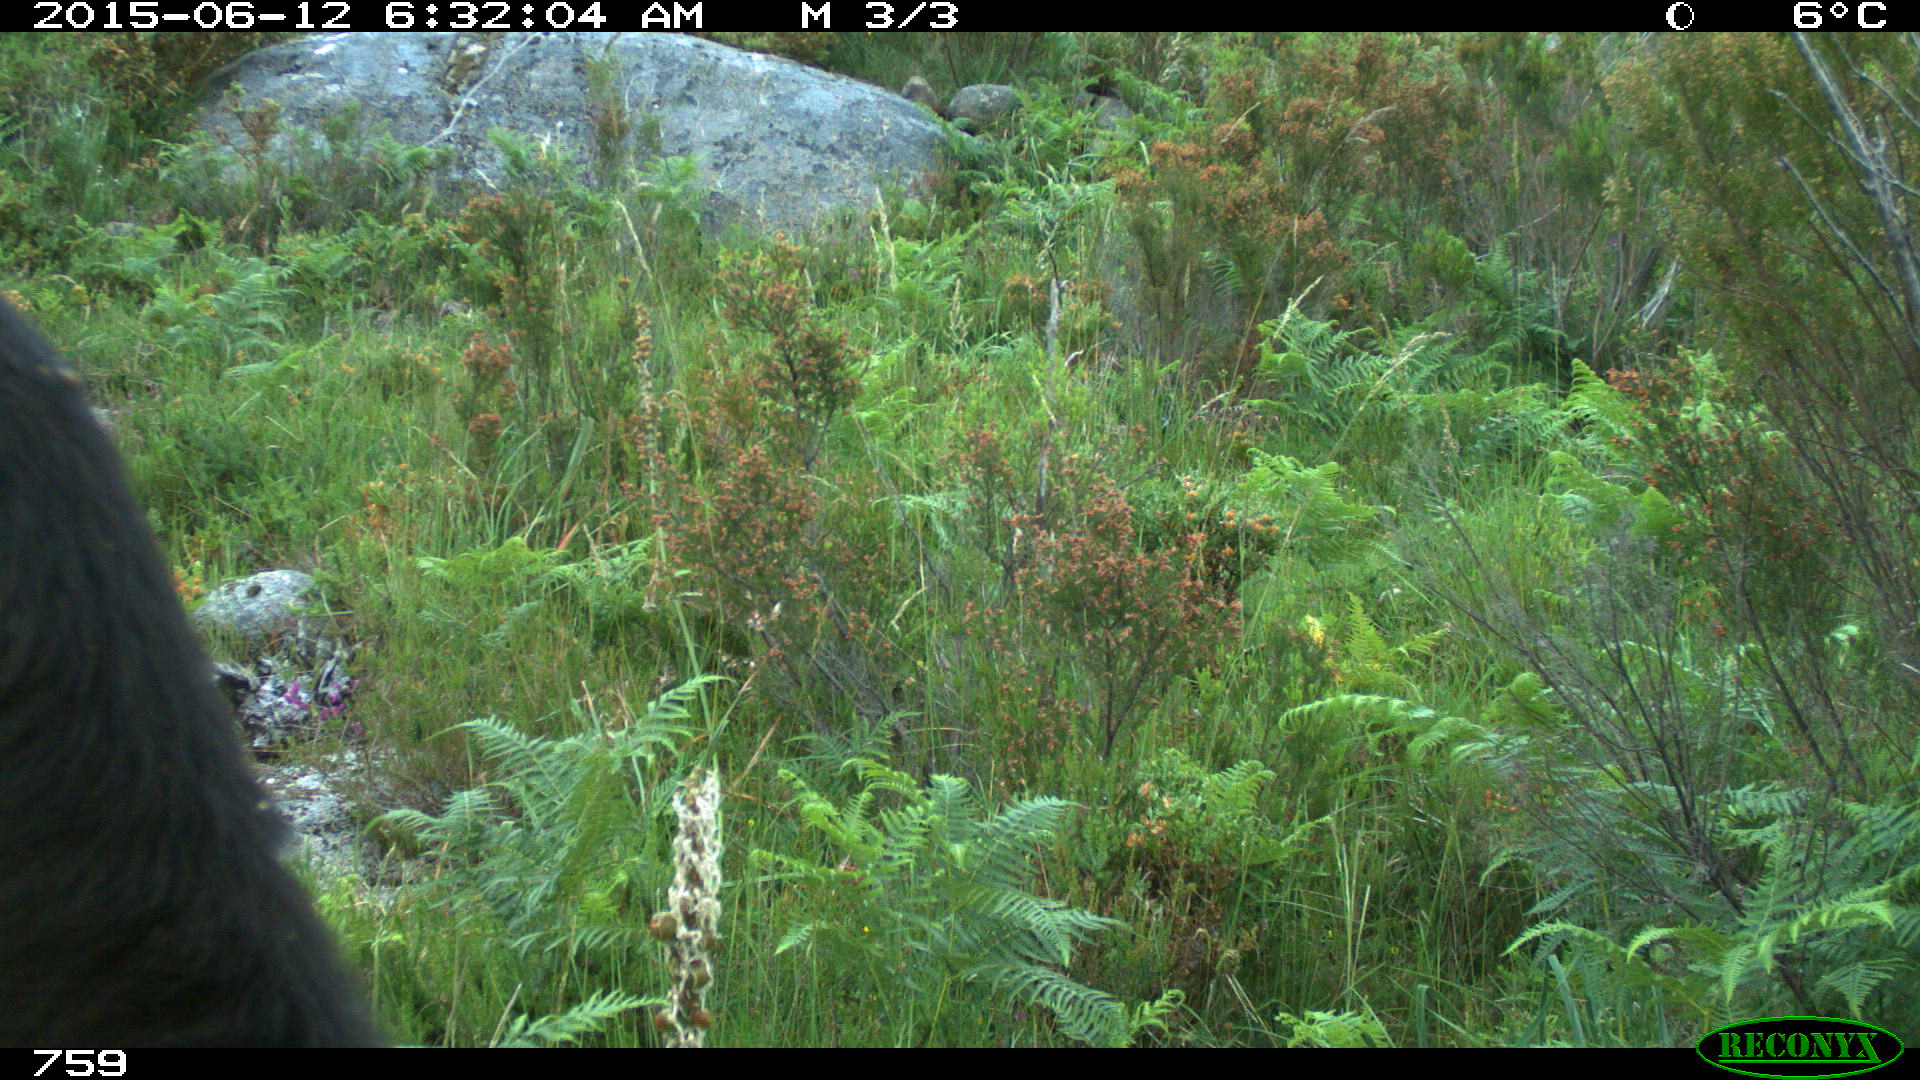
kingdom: Animalia
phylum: Chordata
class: Mammalia
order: Artiodactyla
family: Bovidae
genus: Bos
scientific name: Bos taurus
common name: Domesticated cattle
